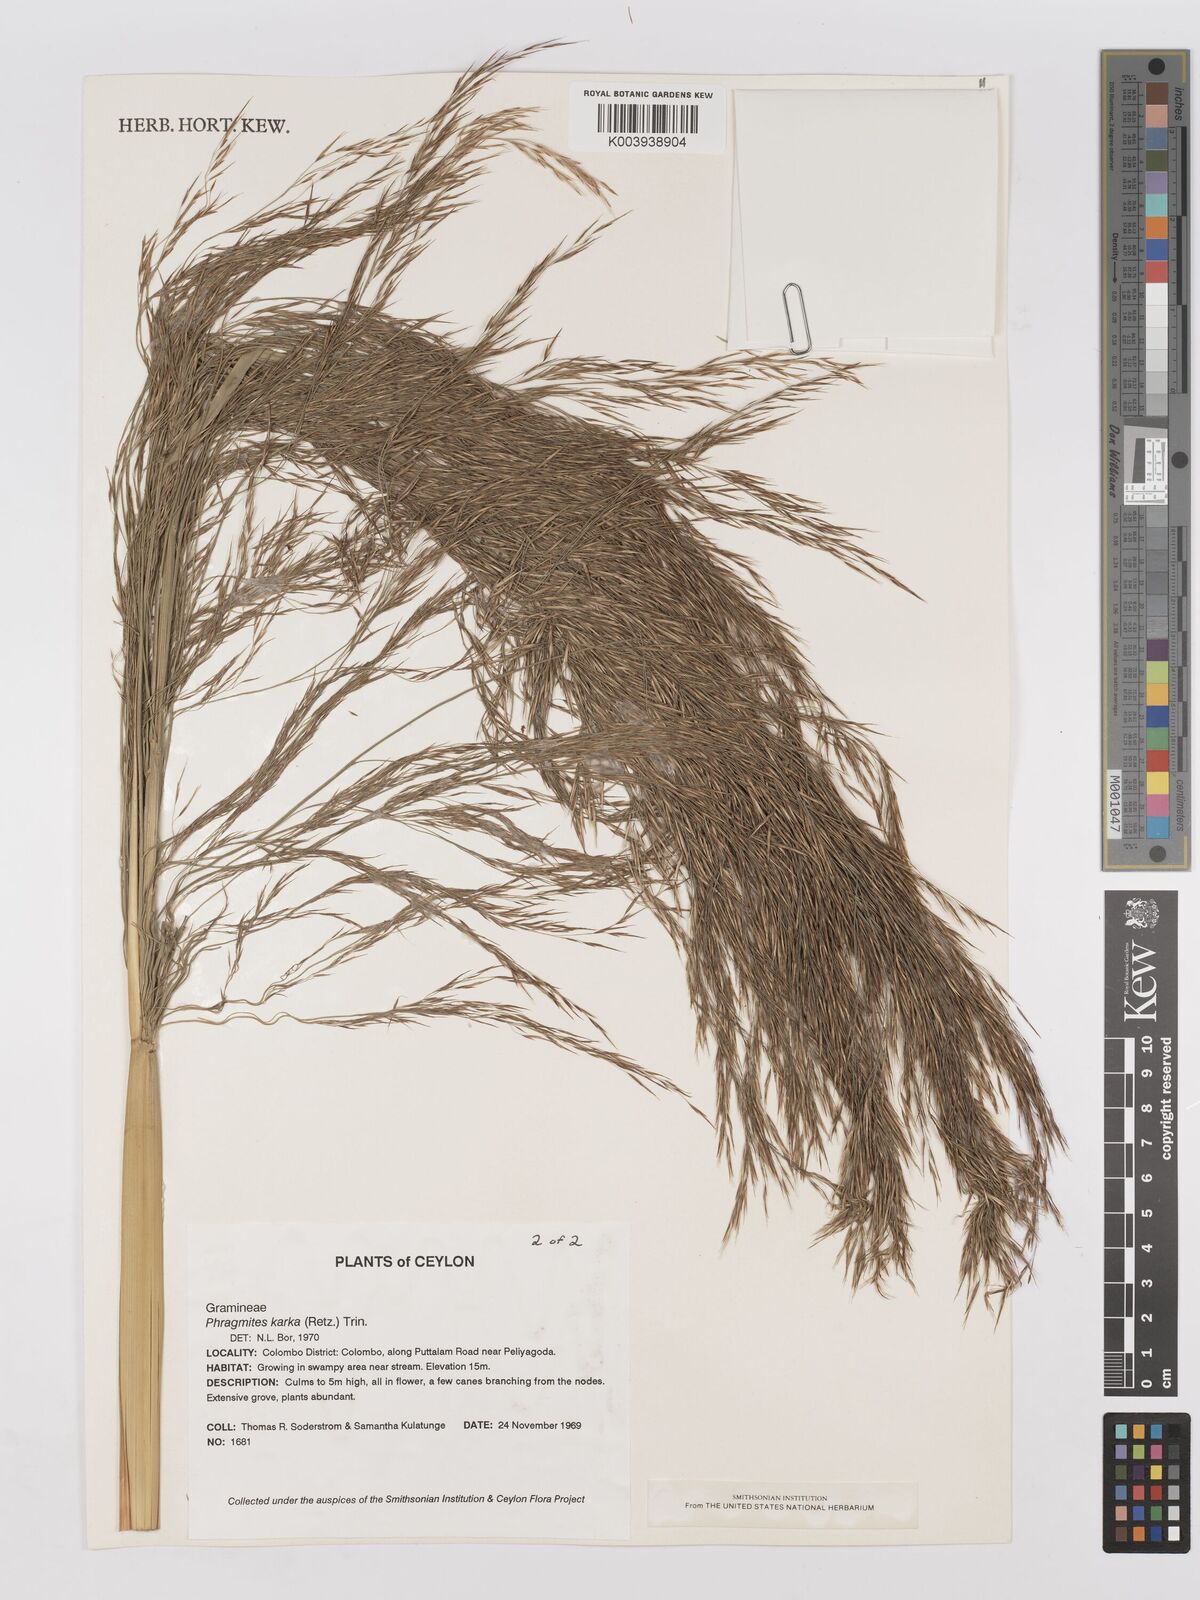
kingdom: Plantae
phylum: Tracheophyta
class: Liliopsida
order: Poales
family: Poaceae
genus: Phragmites
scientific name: Phragmites karka
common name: Tropical reed
